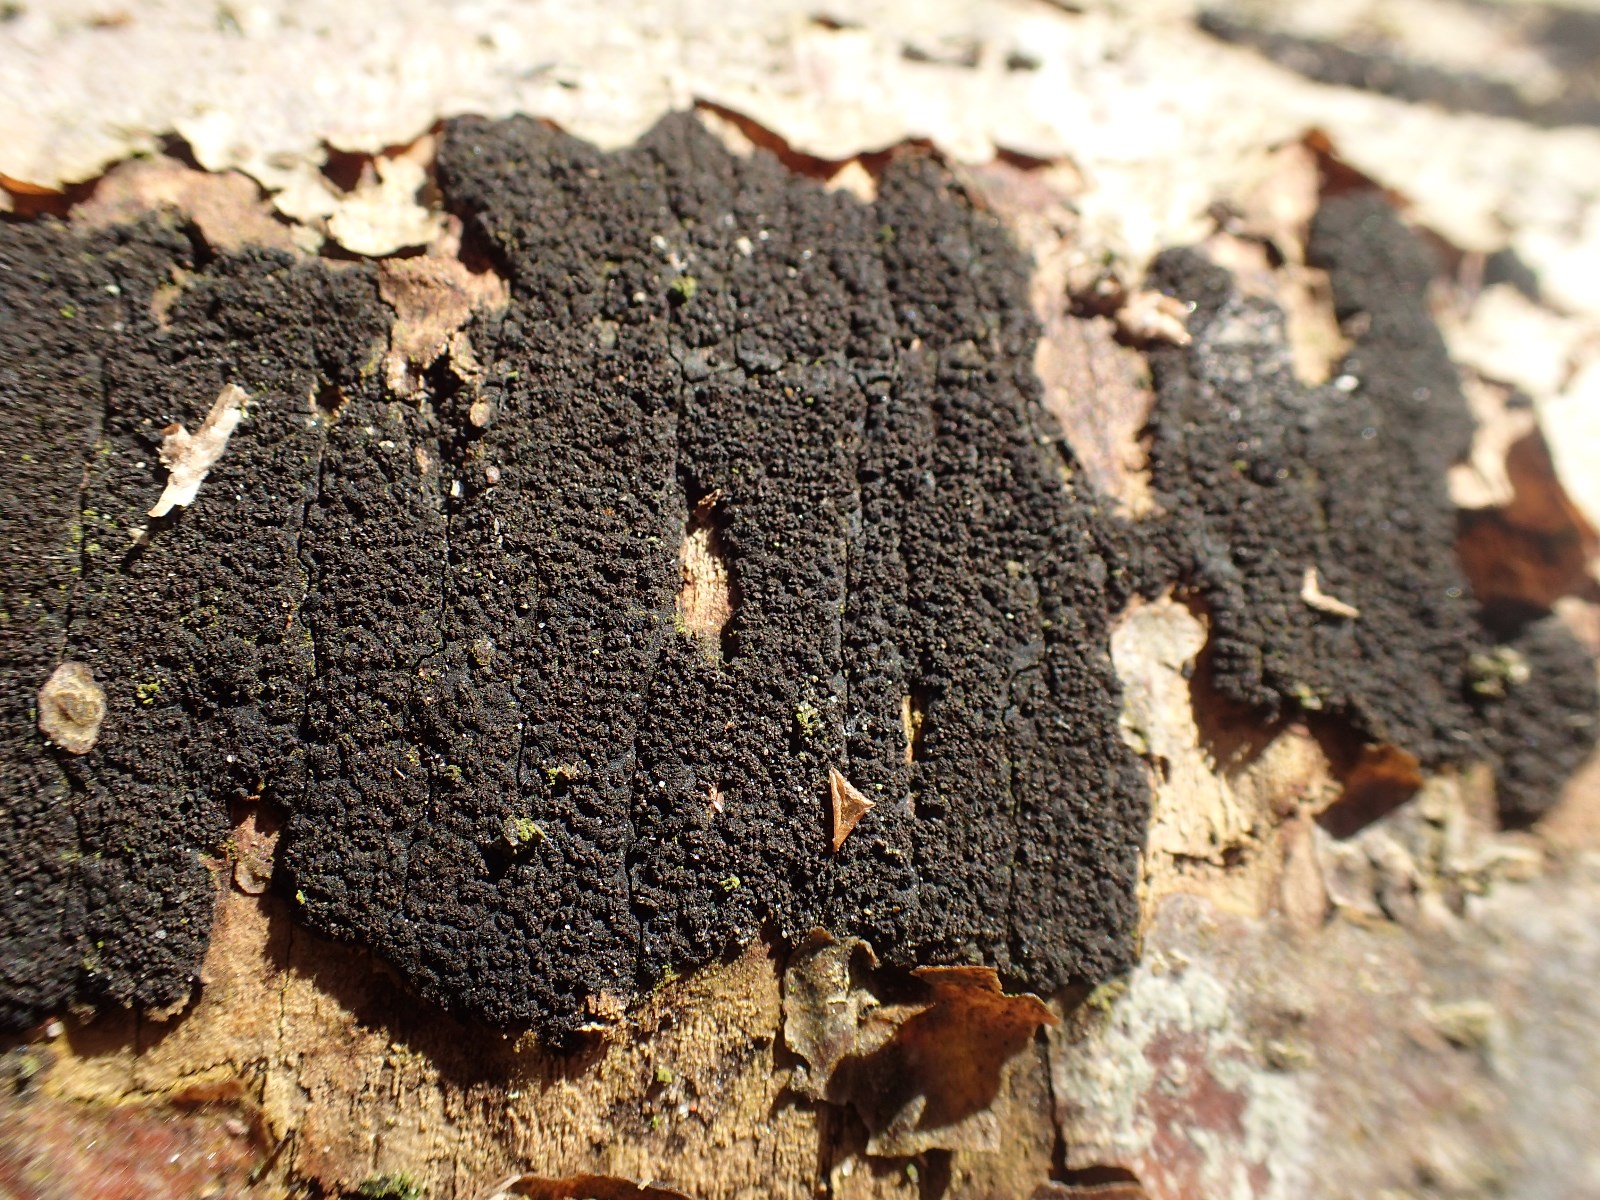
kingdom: Fungi
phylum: Ascomycota
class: Sordariomycetes
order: Xylariales
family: Diatrypaceae
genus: Eutypa
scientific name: Eutypa spinosa
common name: grov kulskorpe
